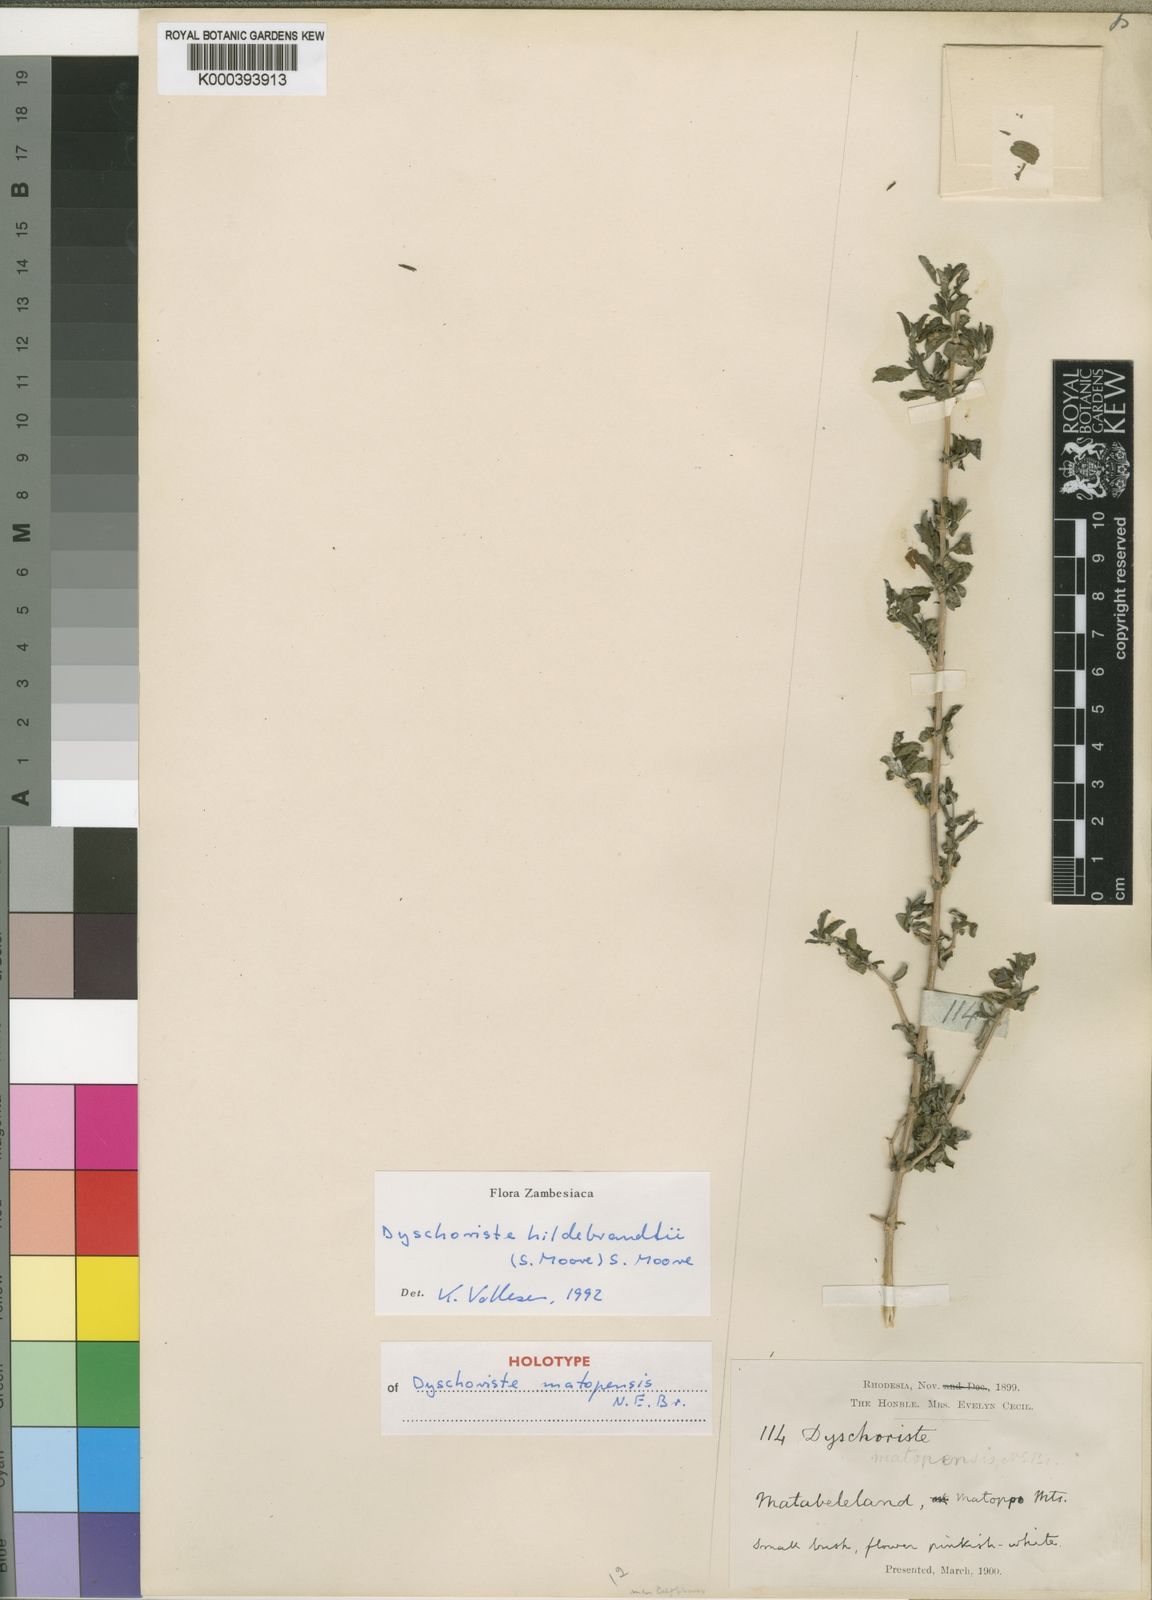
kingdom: Plantae
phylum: Tracheophyta
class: Magnoliopsida
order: Lamiales
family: Acanthaceae
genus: Dyschoriste
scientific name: Dyschoriste
